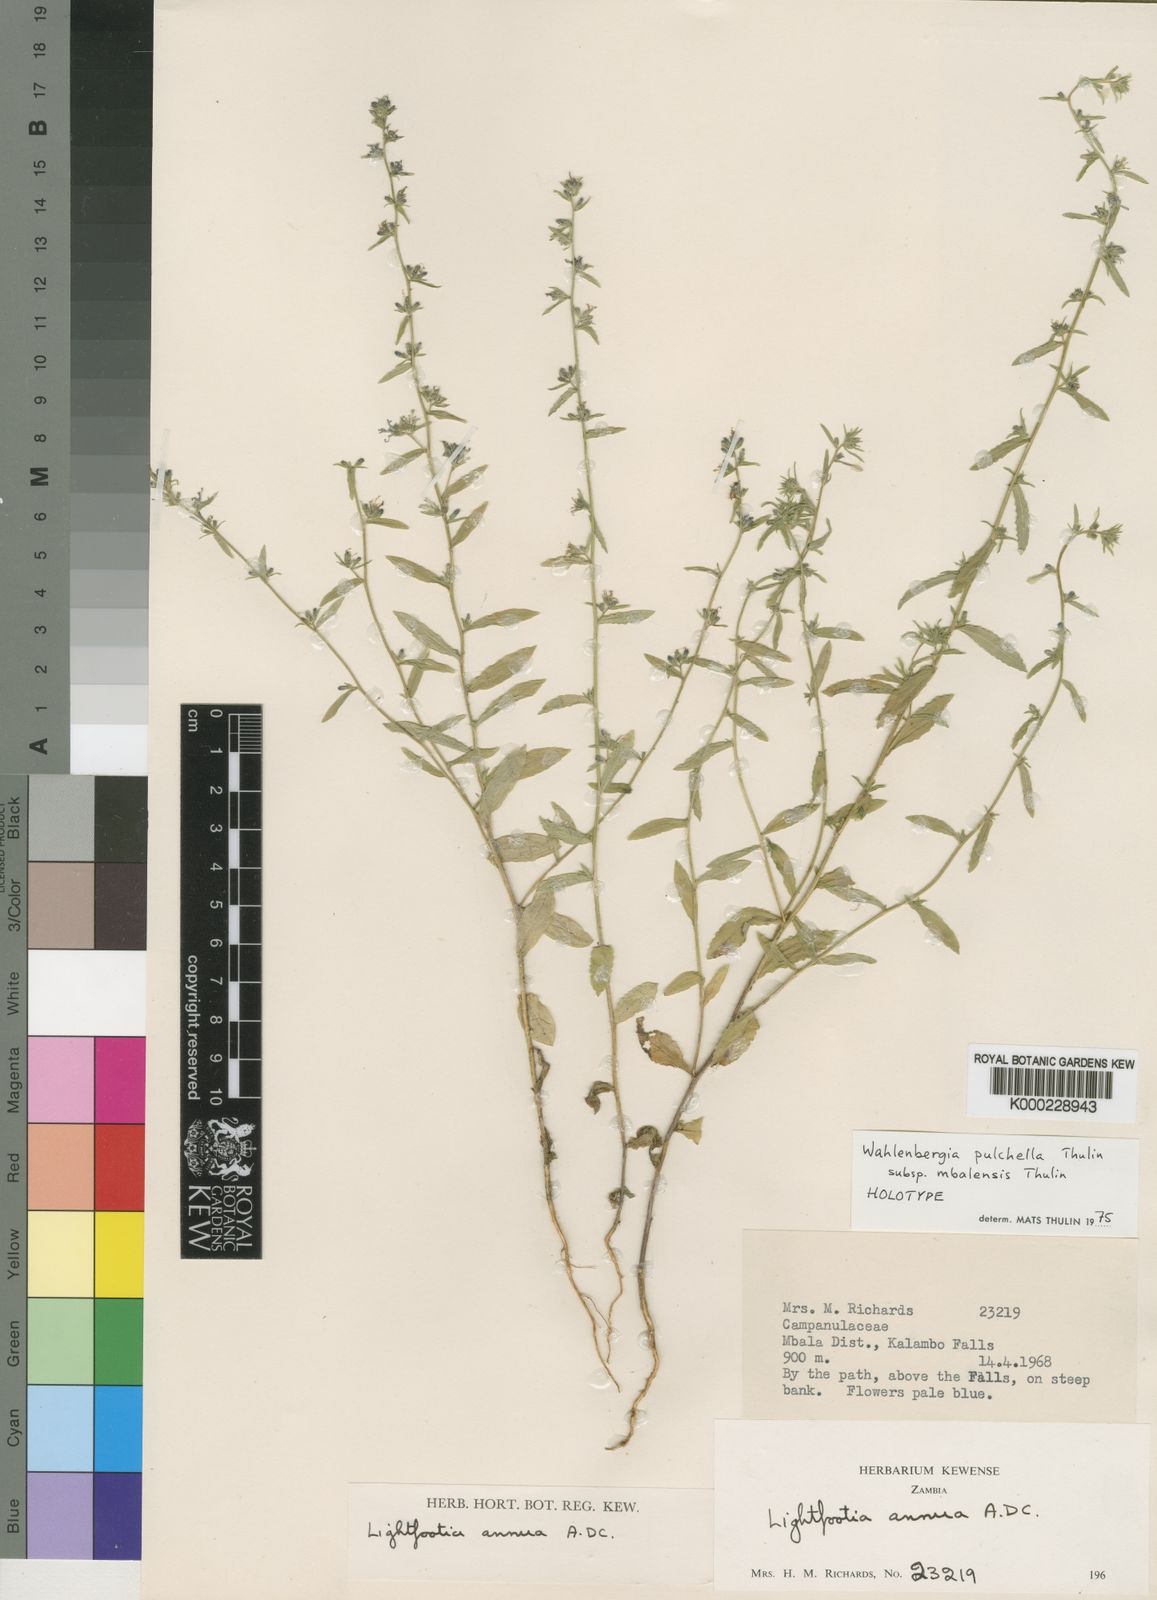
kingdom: Plantae
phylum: Tracheophyta
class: Magnoliopsida
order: Asterales
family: Campanulaceae
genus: Wahlenbergia
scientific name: Wahlenbergia pulchella
